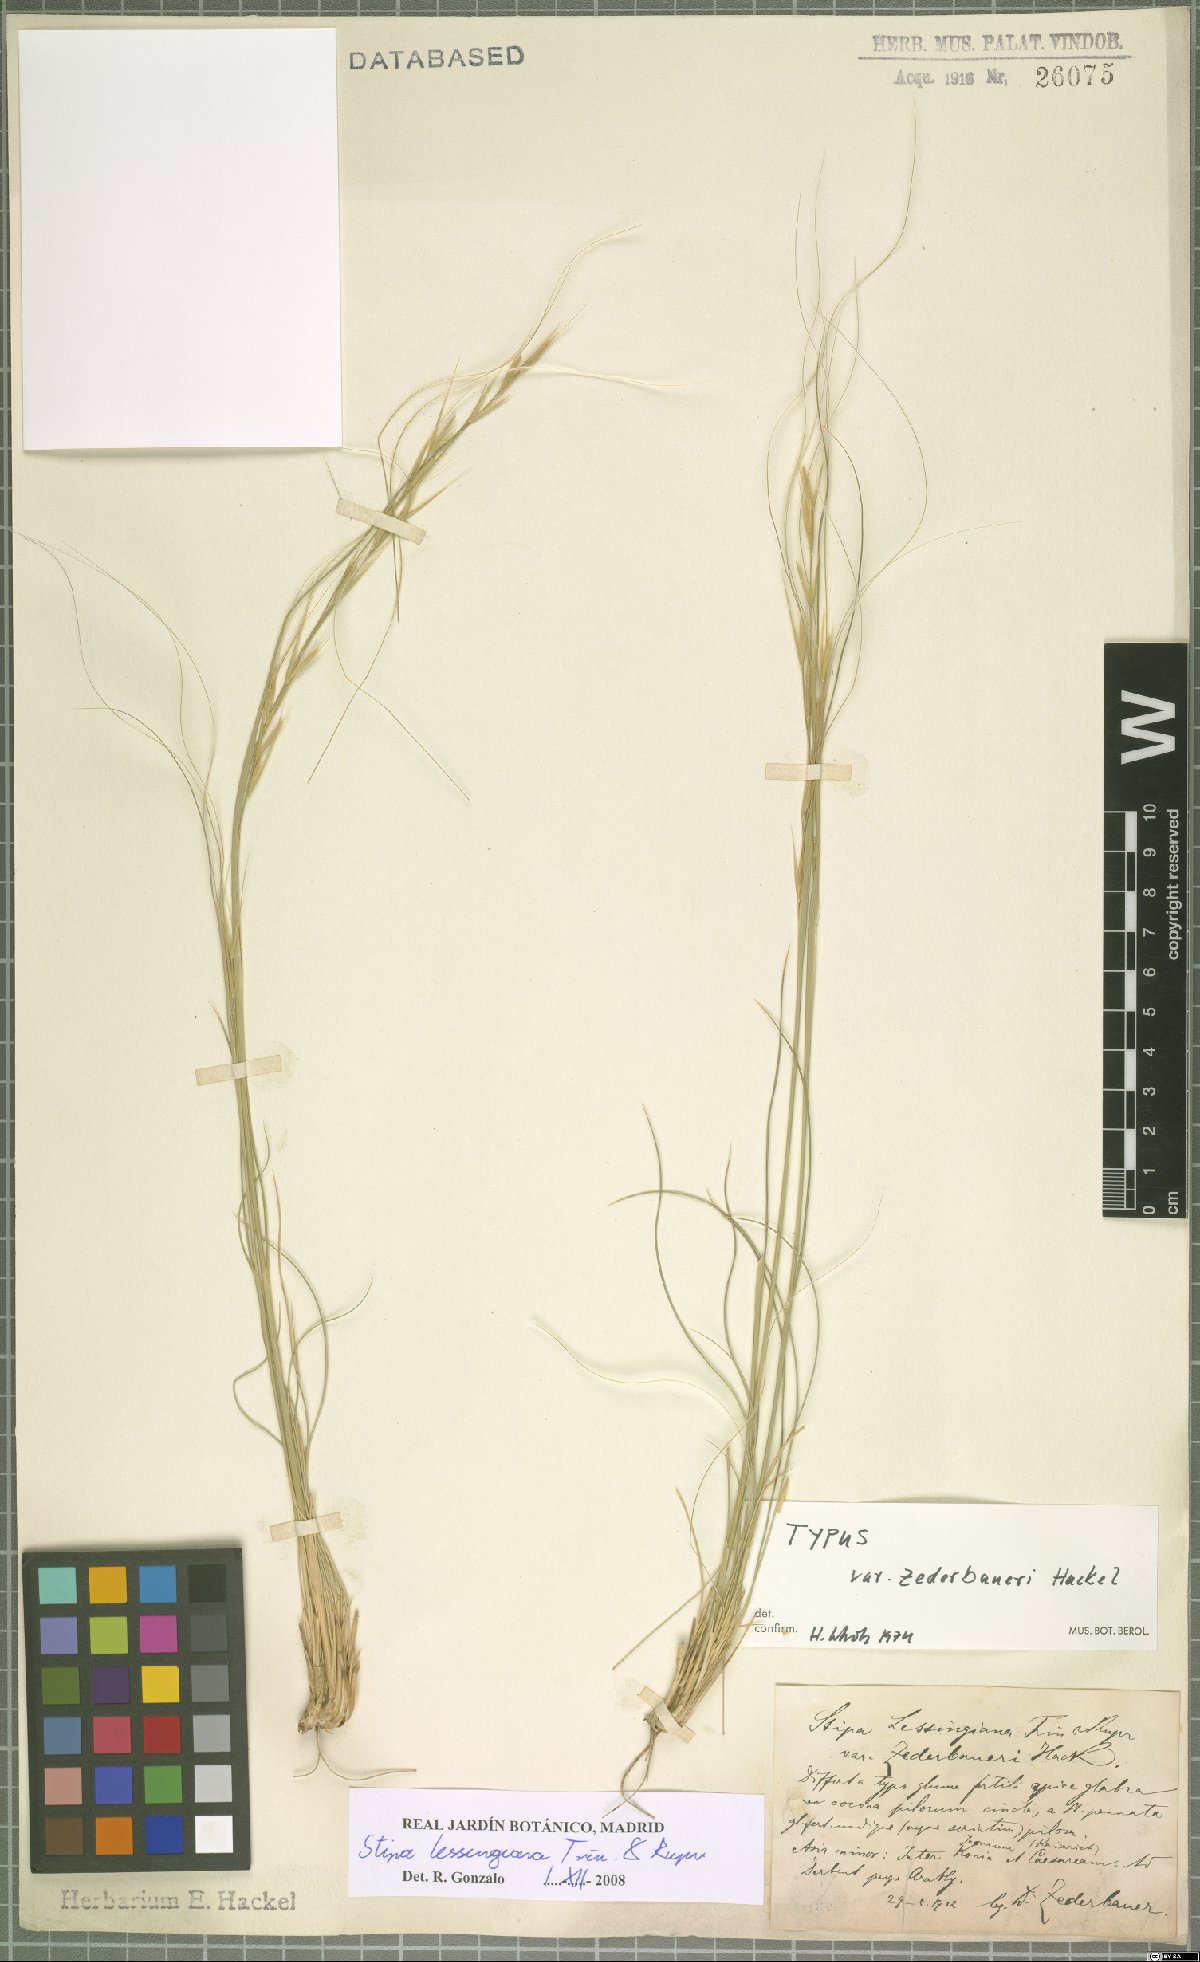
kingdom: Plantae
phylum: Tracheophyta
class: Liliopsida
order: Poales
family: Poaceae
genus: Stipa
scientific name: Stipa lessingiana
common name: Needle grass
